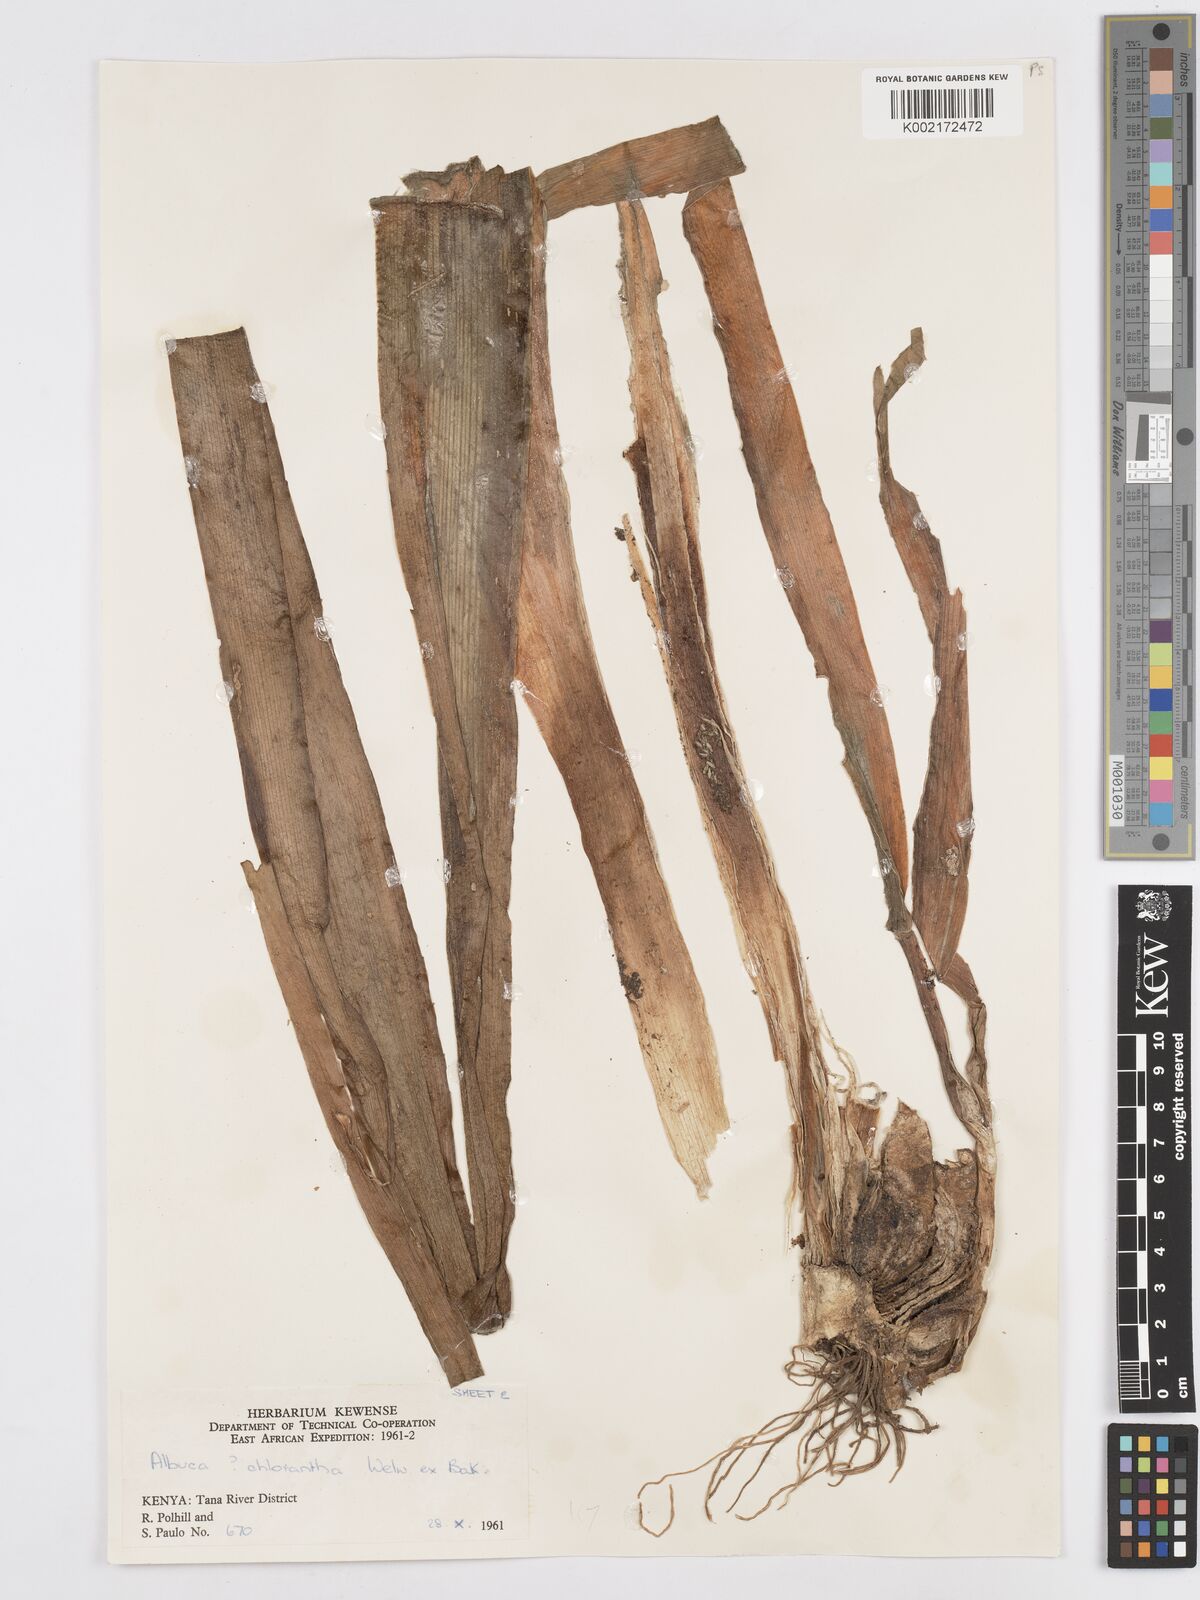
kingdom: Plantae
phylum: Tracheophyta
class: Liliopsida
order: Asparagales
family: Asparagaceae
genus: Albuca
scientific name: Albuca abyssinica
